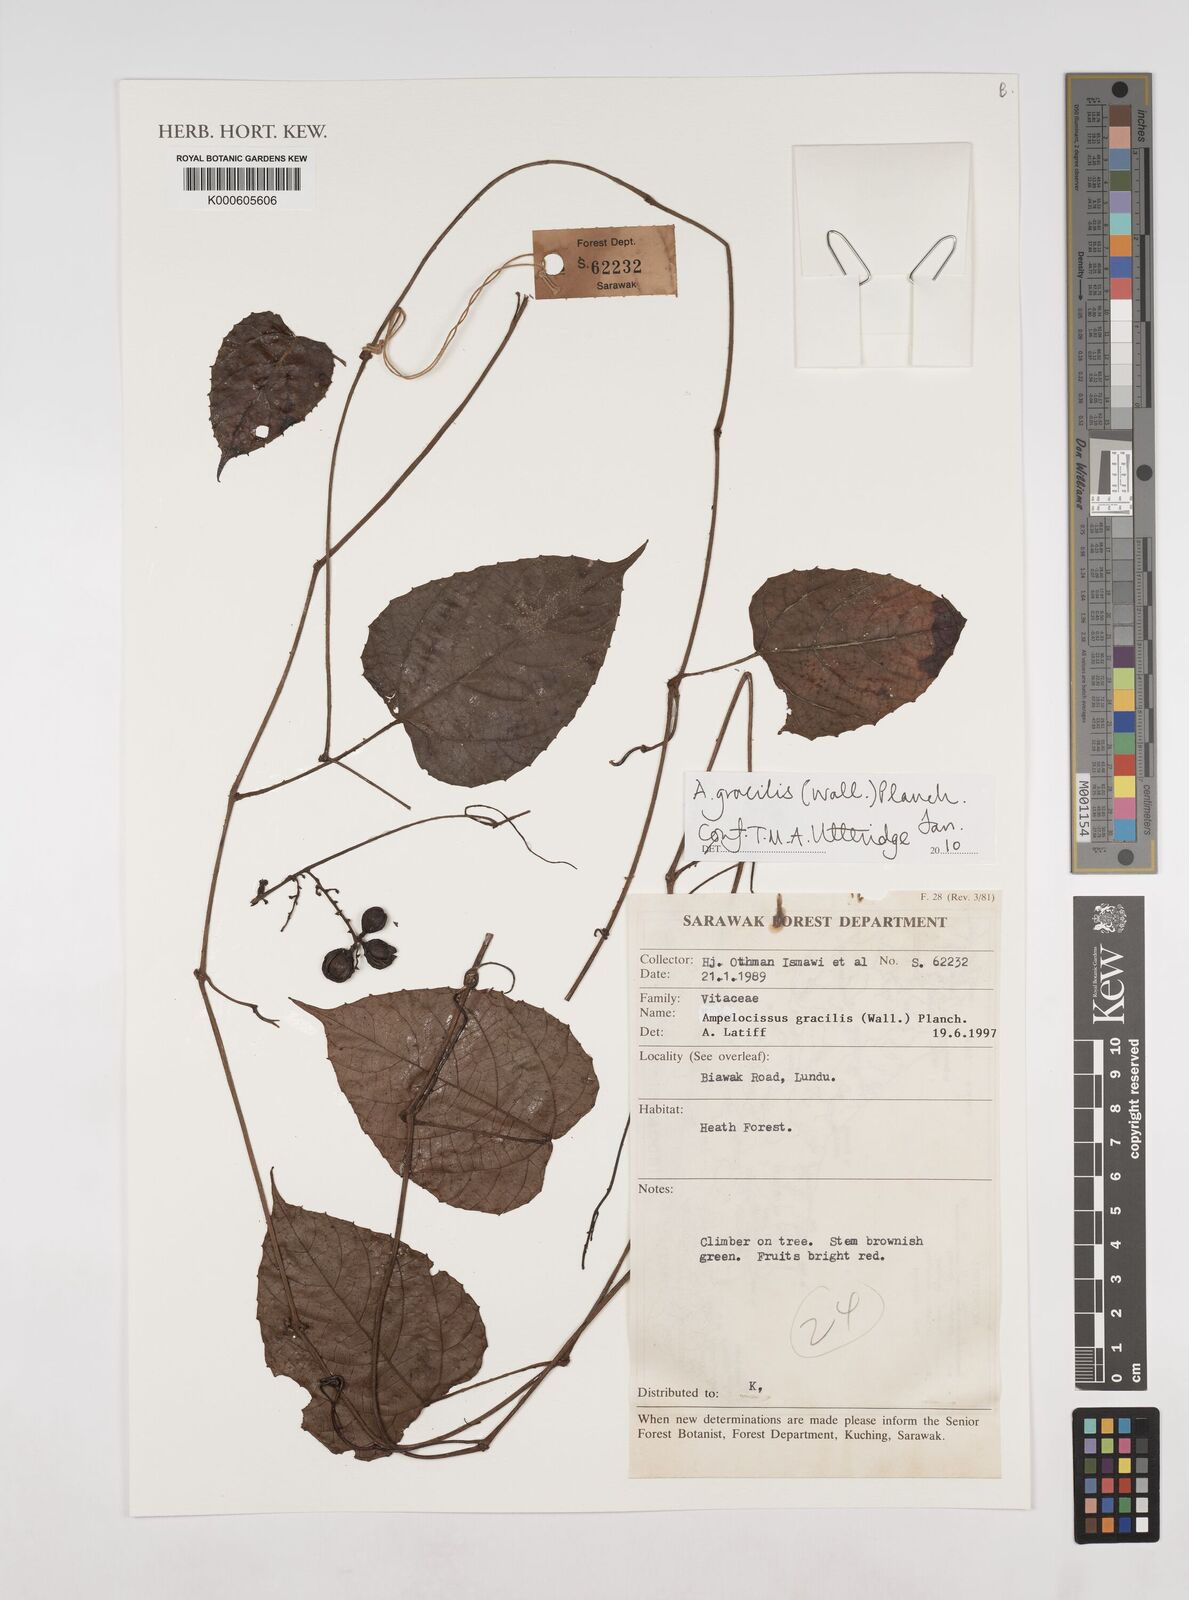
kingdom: Plantae
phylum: Tracheophyta
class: Magnoliopsida
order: Vitales
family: Vitaceae
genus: Ampelocissus
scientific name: Ampelocissus gracilis
